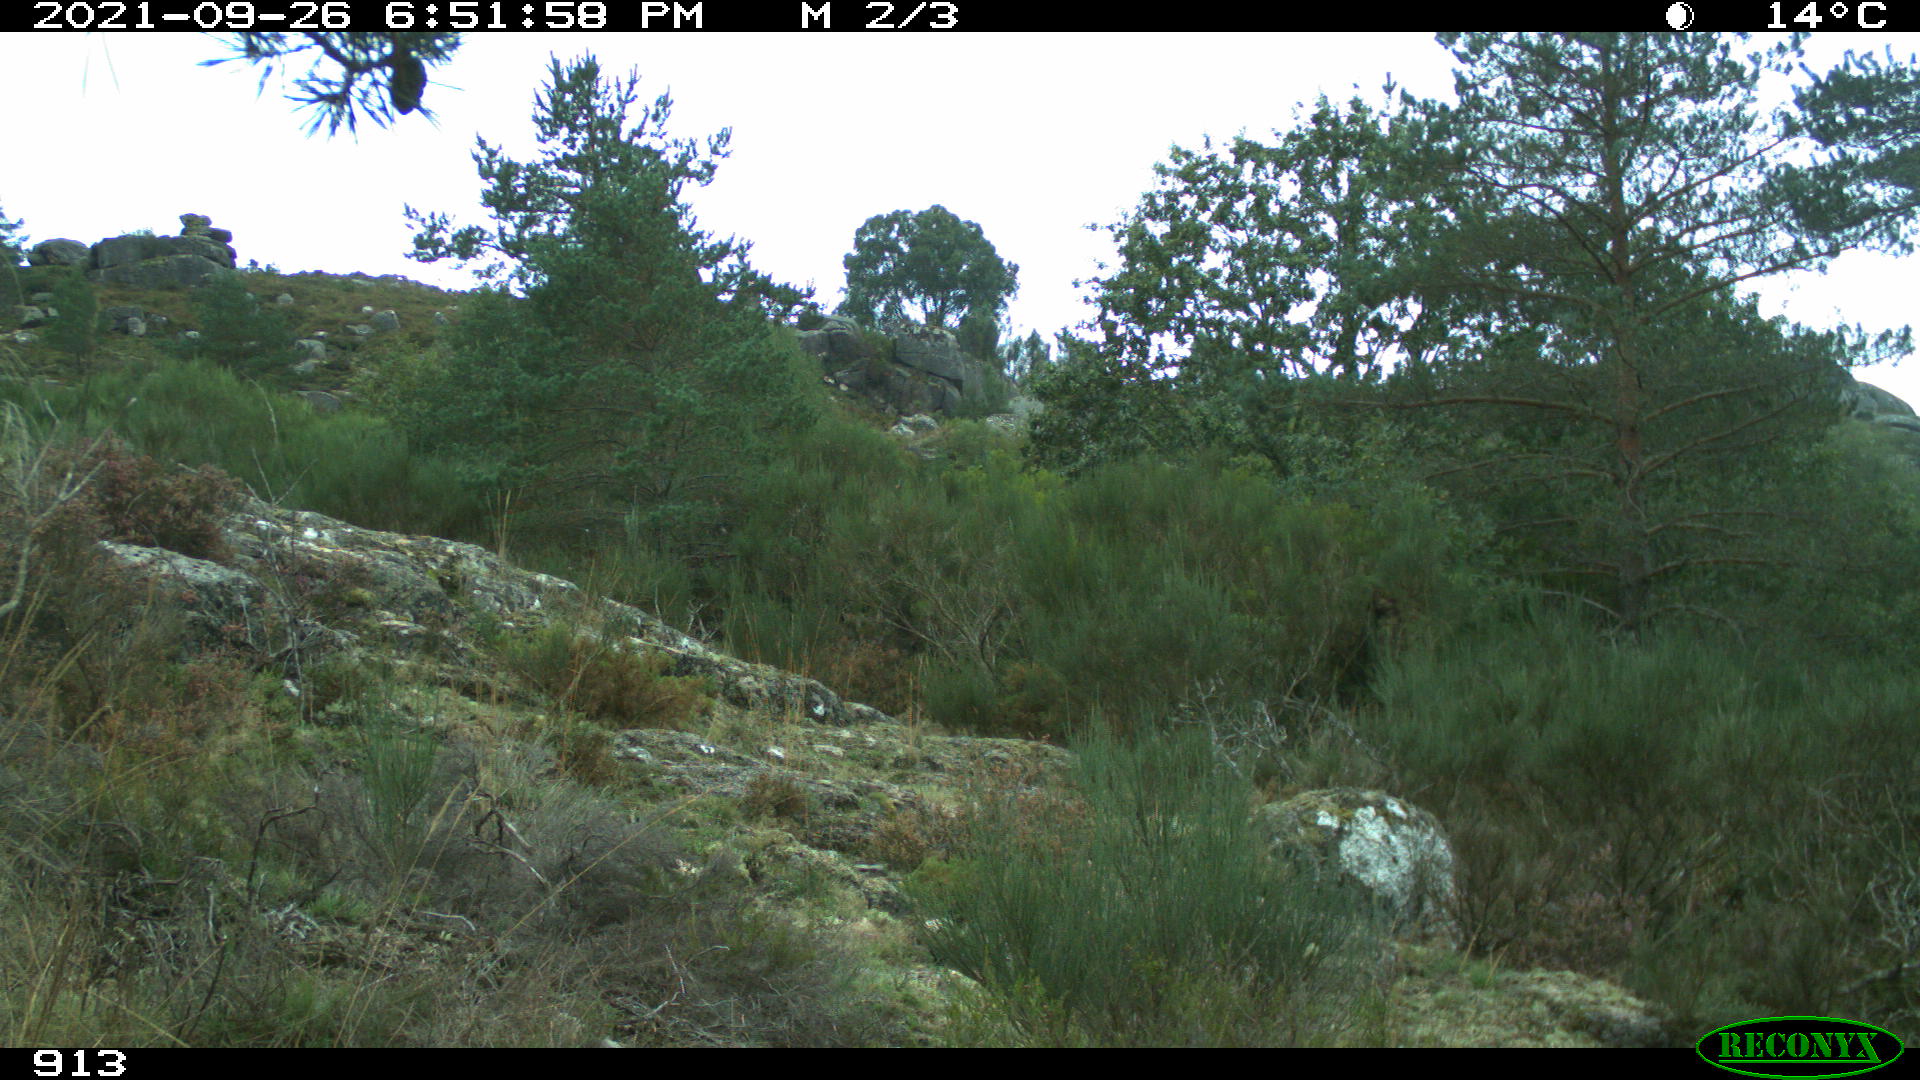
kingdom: Animalia
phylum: Chordata
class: Aves
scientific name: Aves
